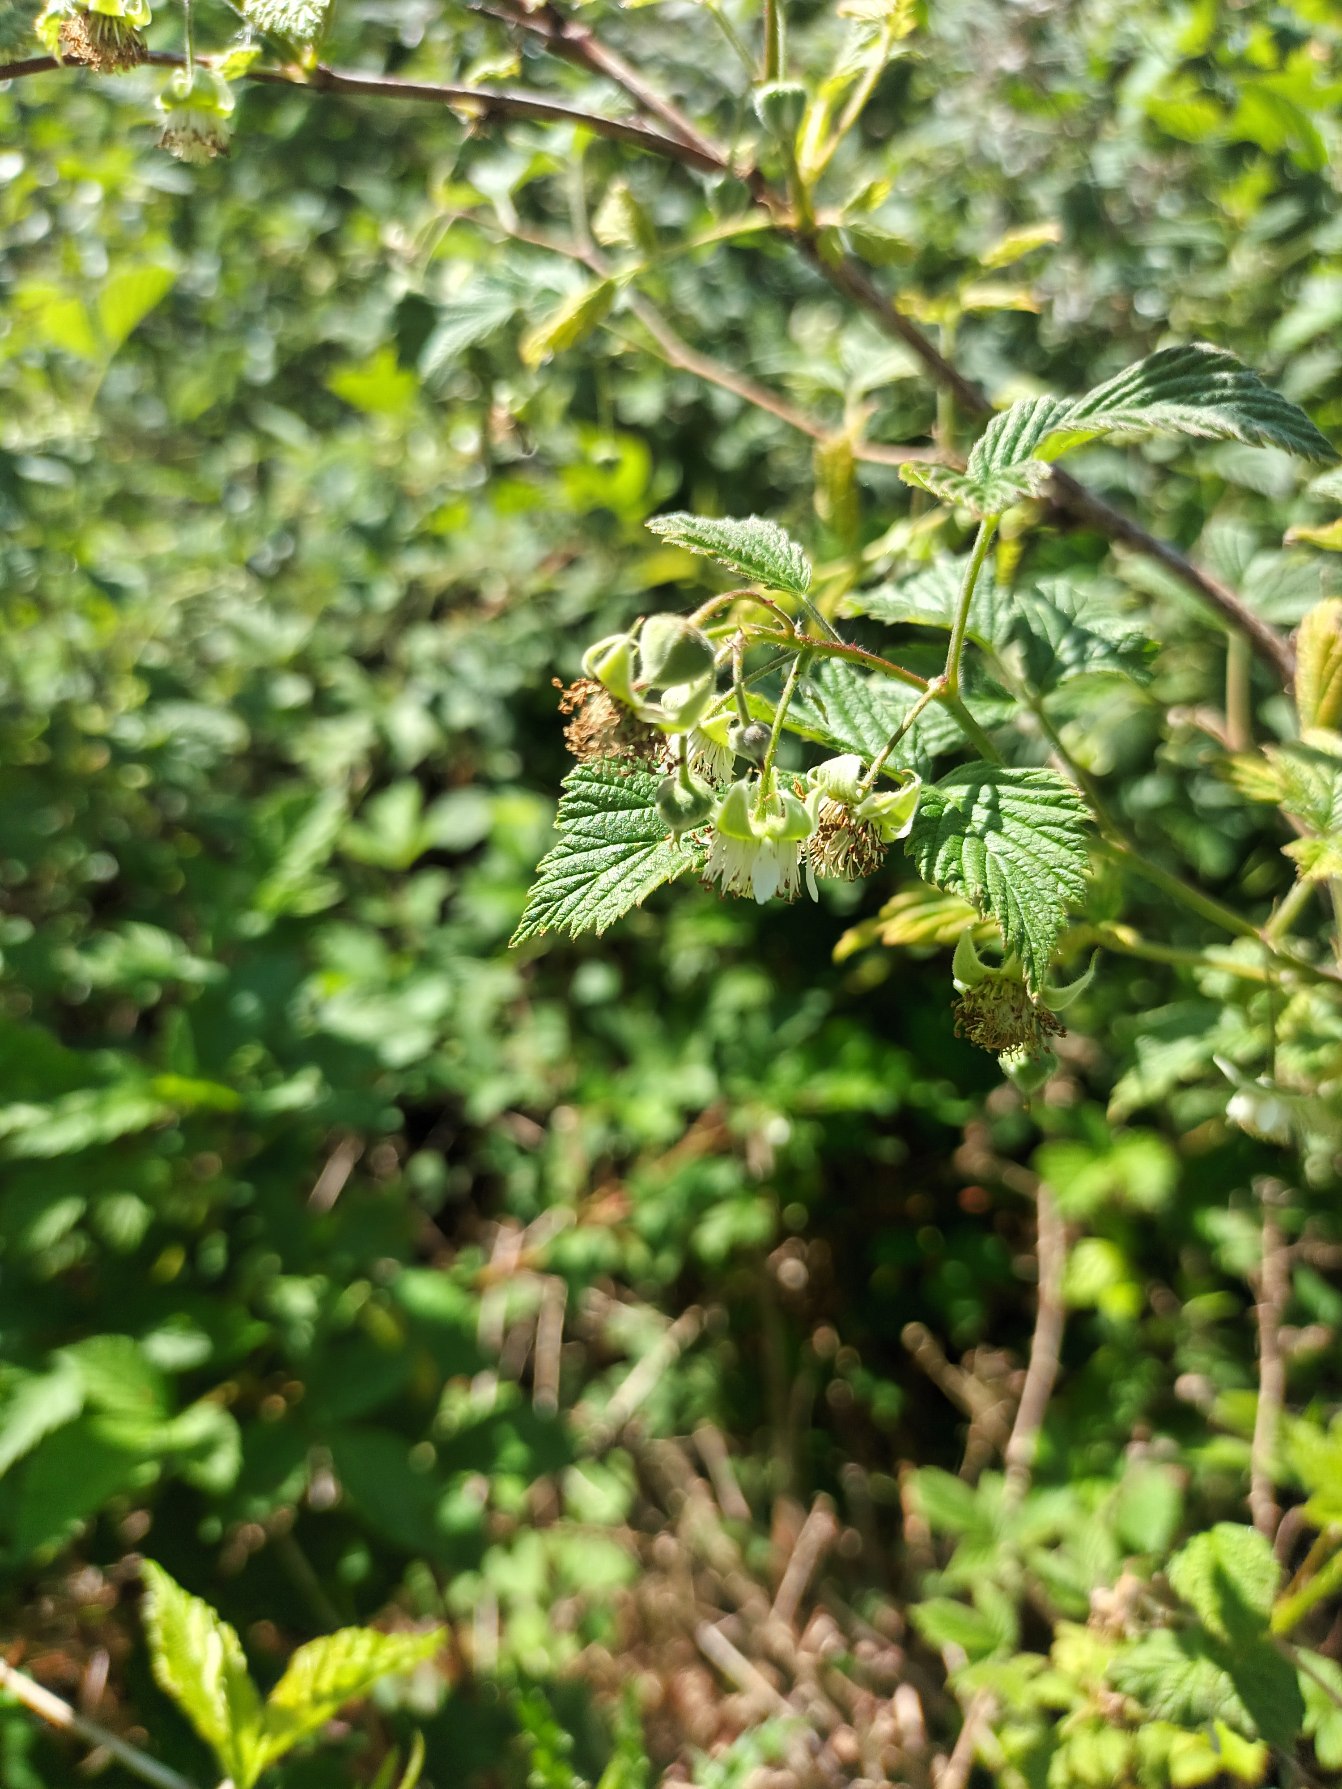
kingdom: Plantae
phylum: Tracheophyta
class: Magnoliopsida
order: Rosales
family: Rosaceae
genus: Rubus
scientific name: Rubus idaeus
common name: Hindbær
